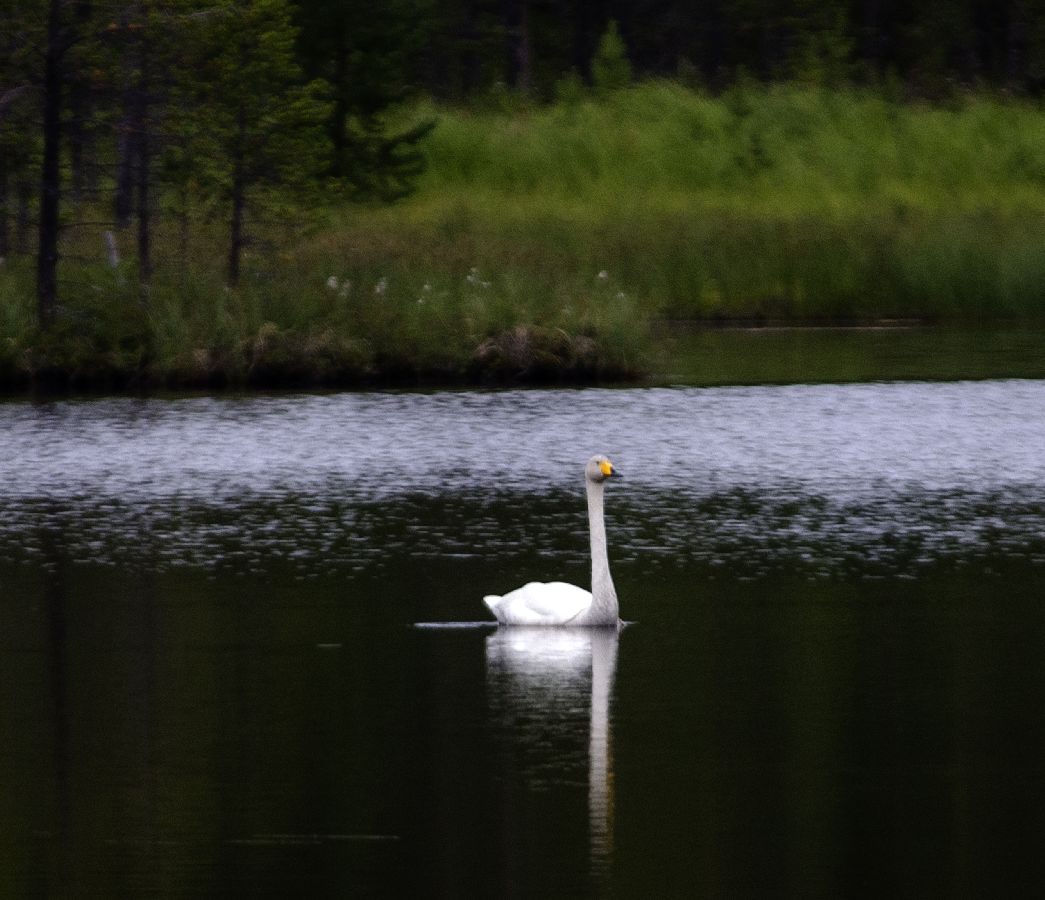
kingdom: Animalia
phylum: Chordata
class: Aves
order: Anseriformes
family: Anatidae
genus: Cygnus
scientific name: Cygnus cygnus
